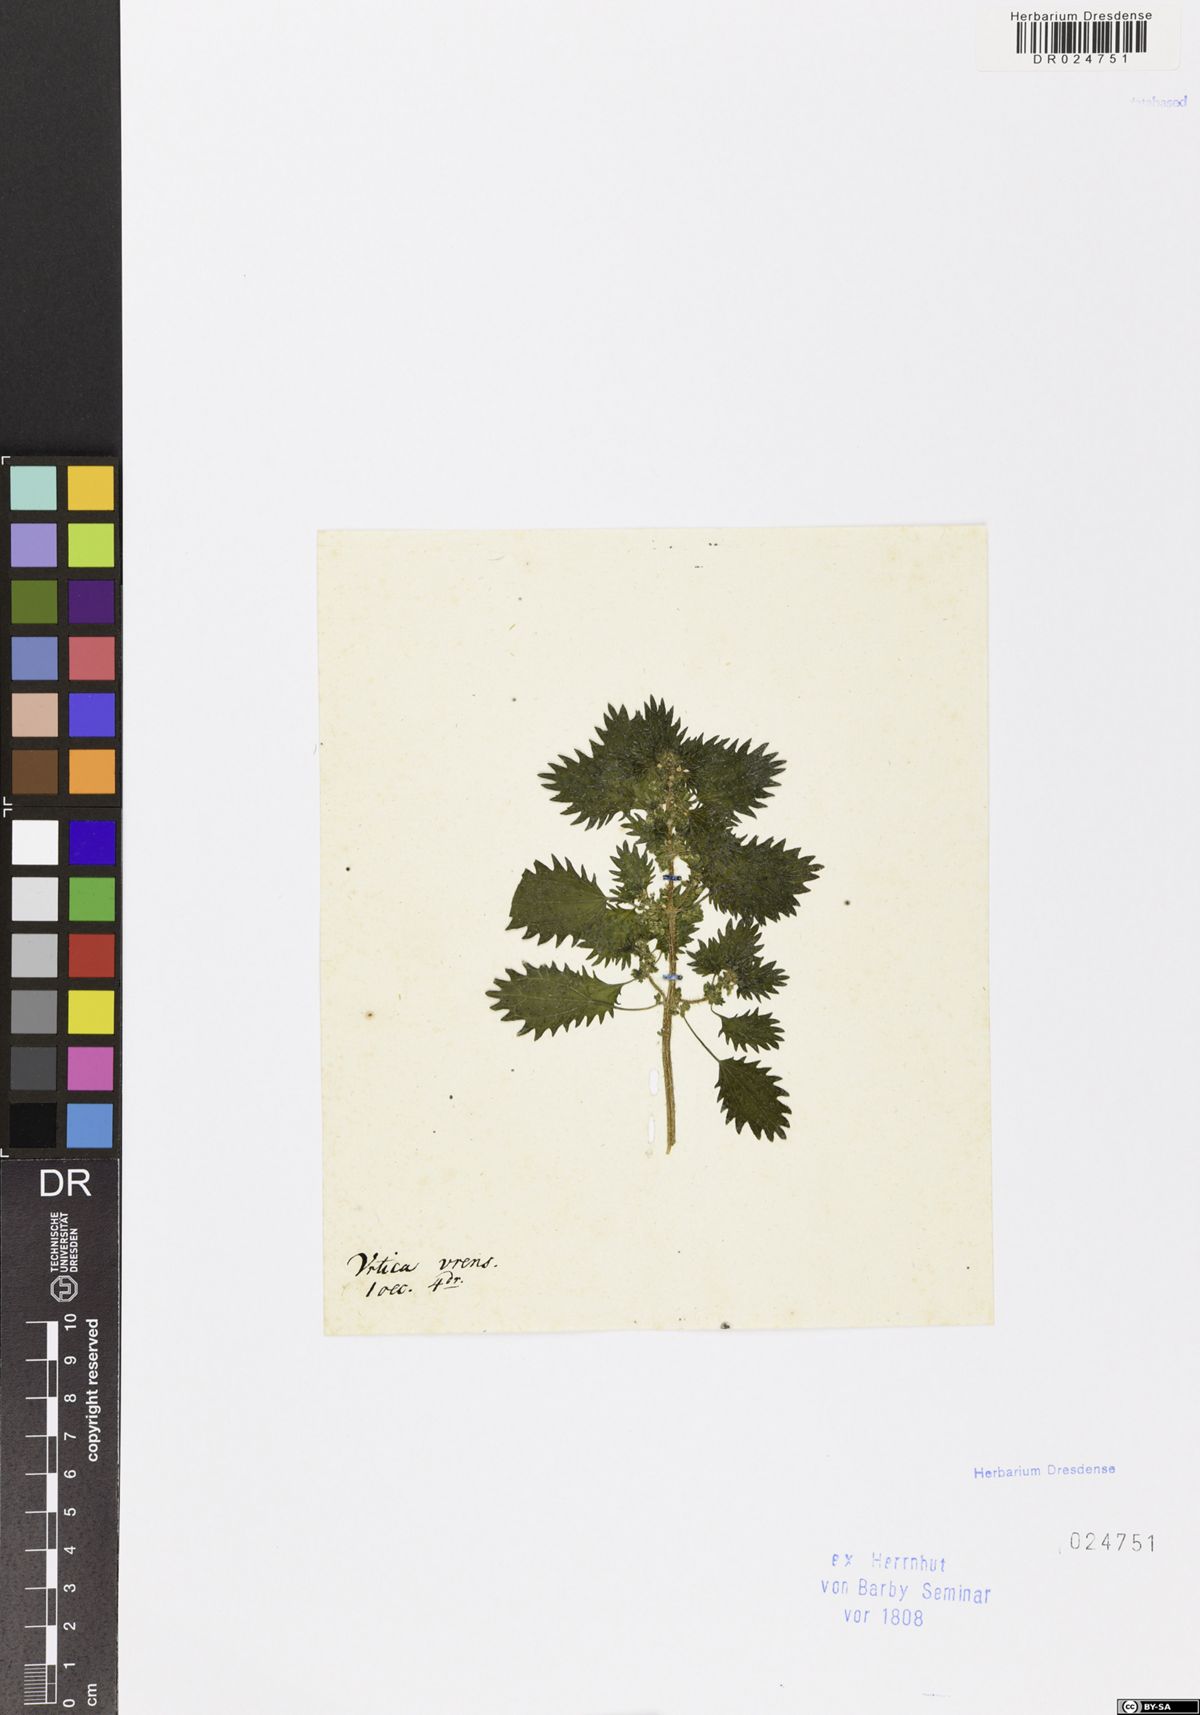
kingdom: Plantae
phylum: Tracheophyta
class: Magnoliopsida
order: Rosales
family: Urticaceae
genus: Urtica
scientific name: Urtica urens
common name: Dwarf nettle
